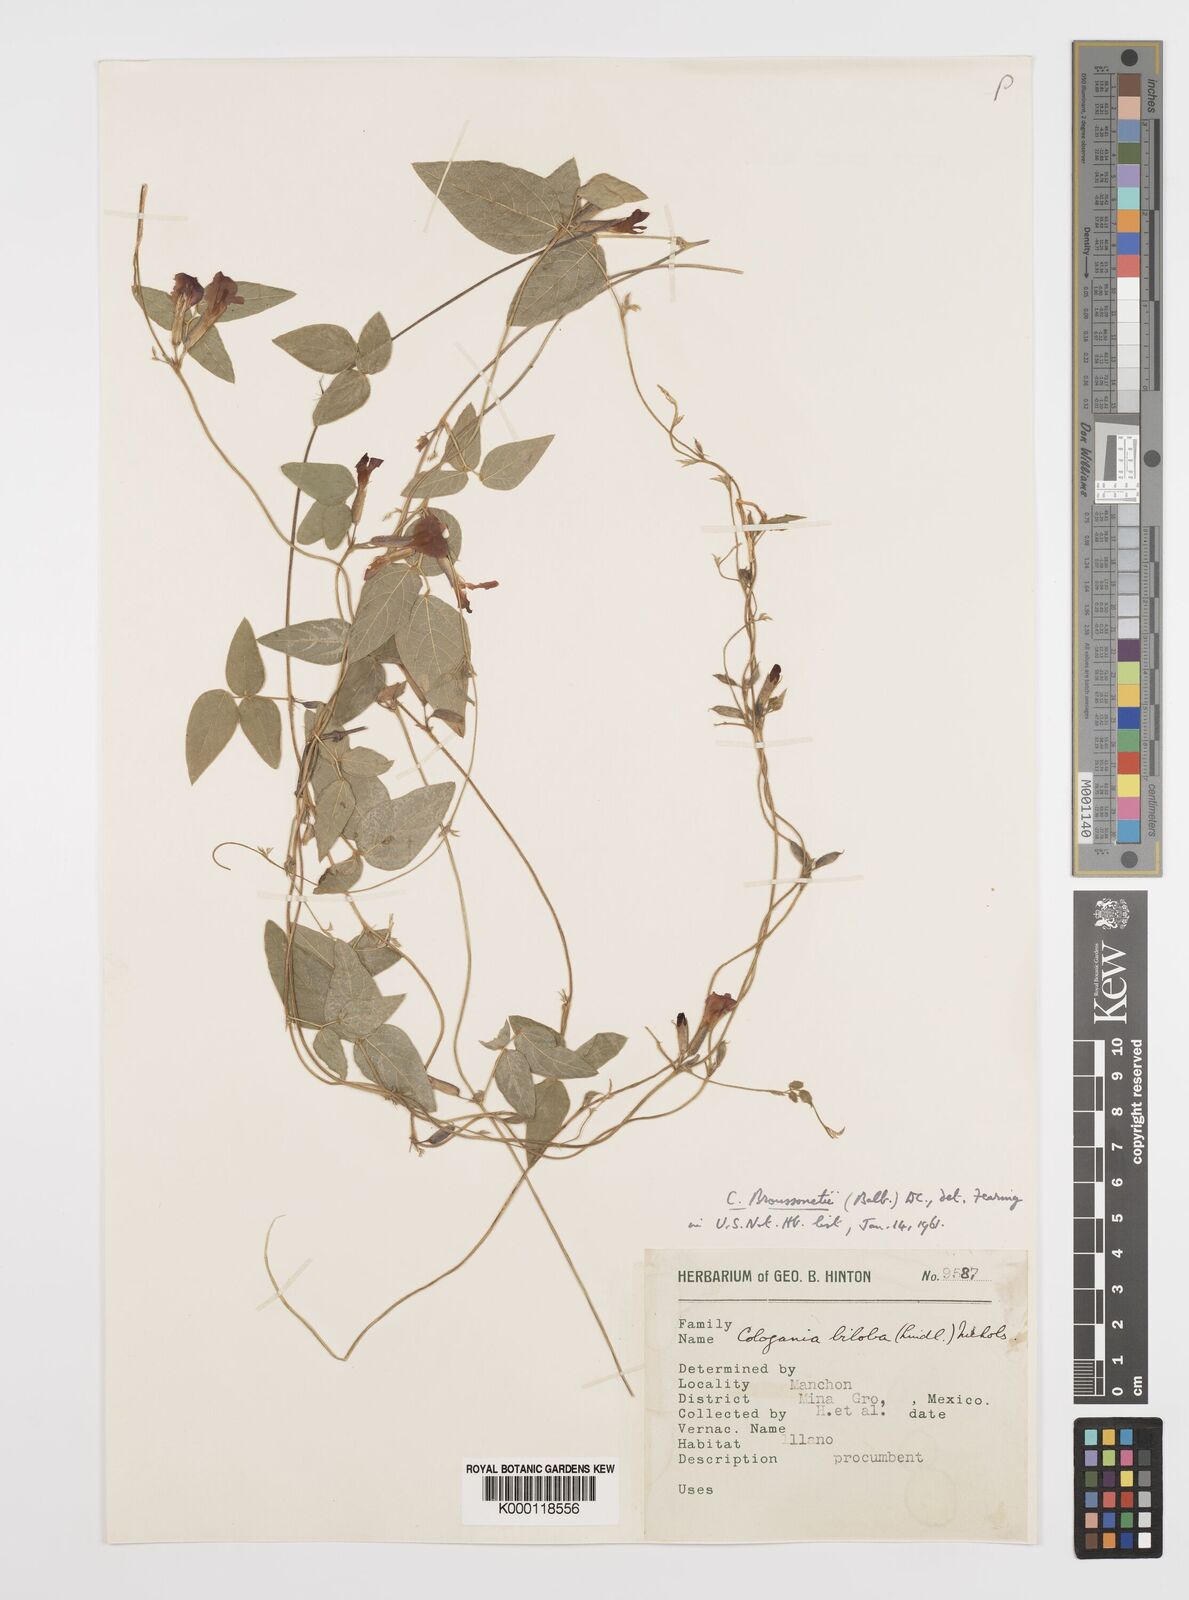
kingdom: Plantae
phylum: Tracheophyta
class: Magnoliopsida
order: Fabales
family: Fabaceae
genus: Cologania
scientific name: Cologania broussonetii
